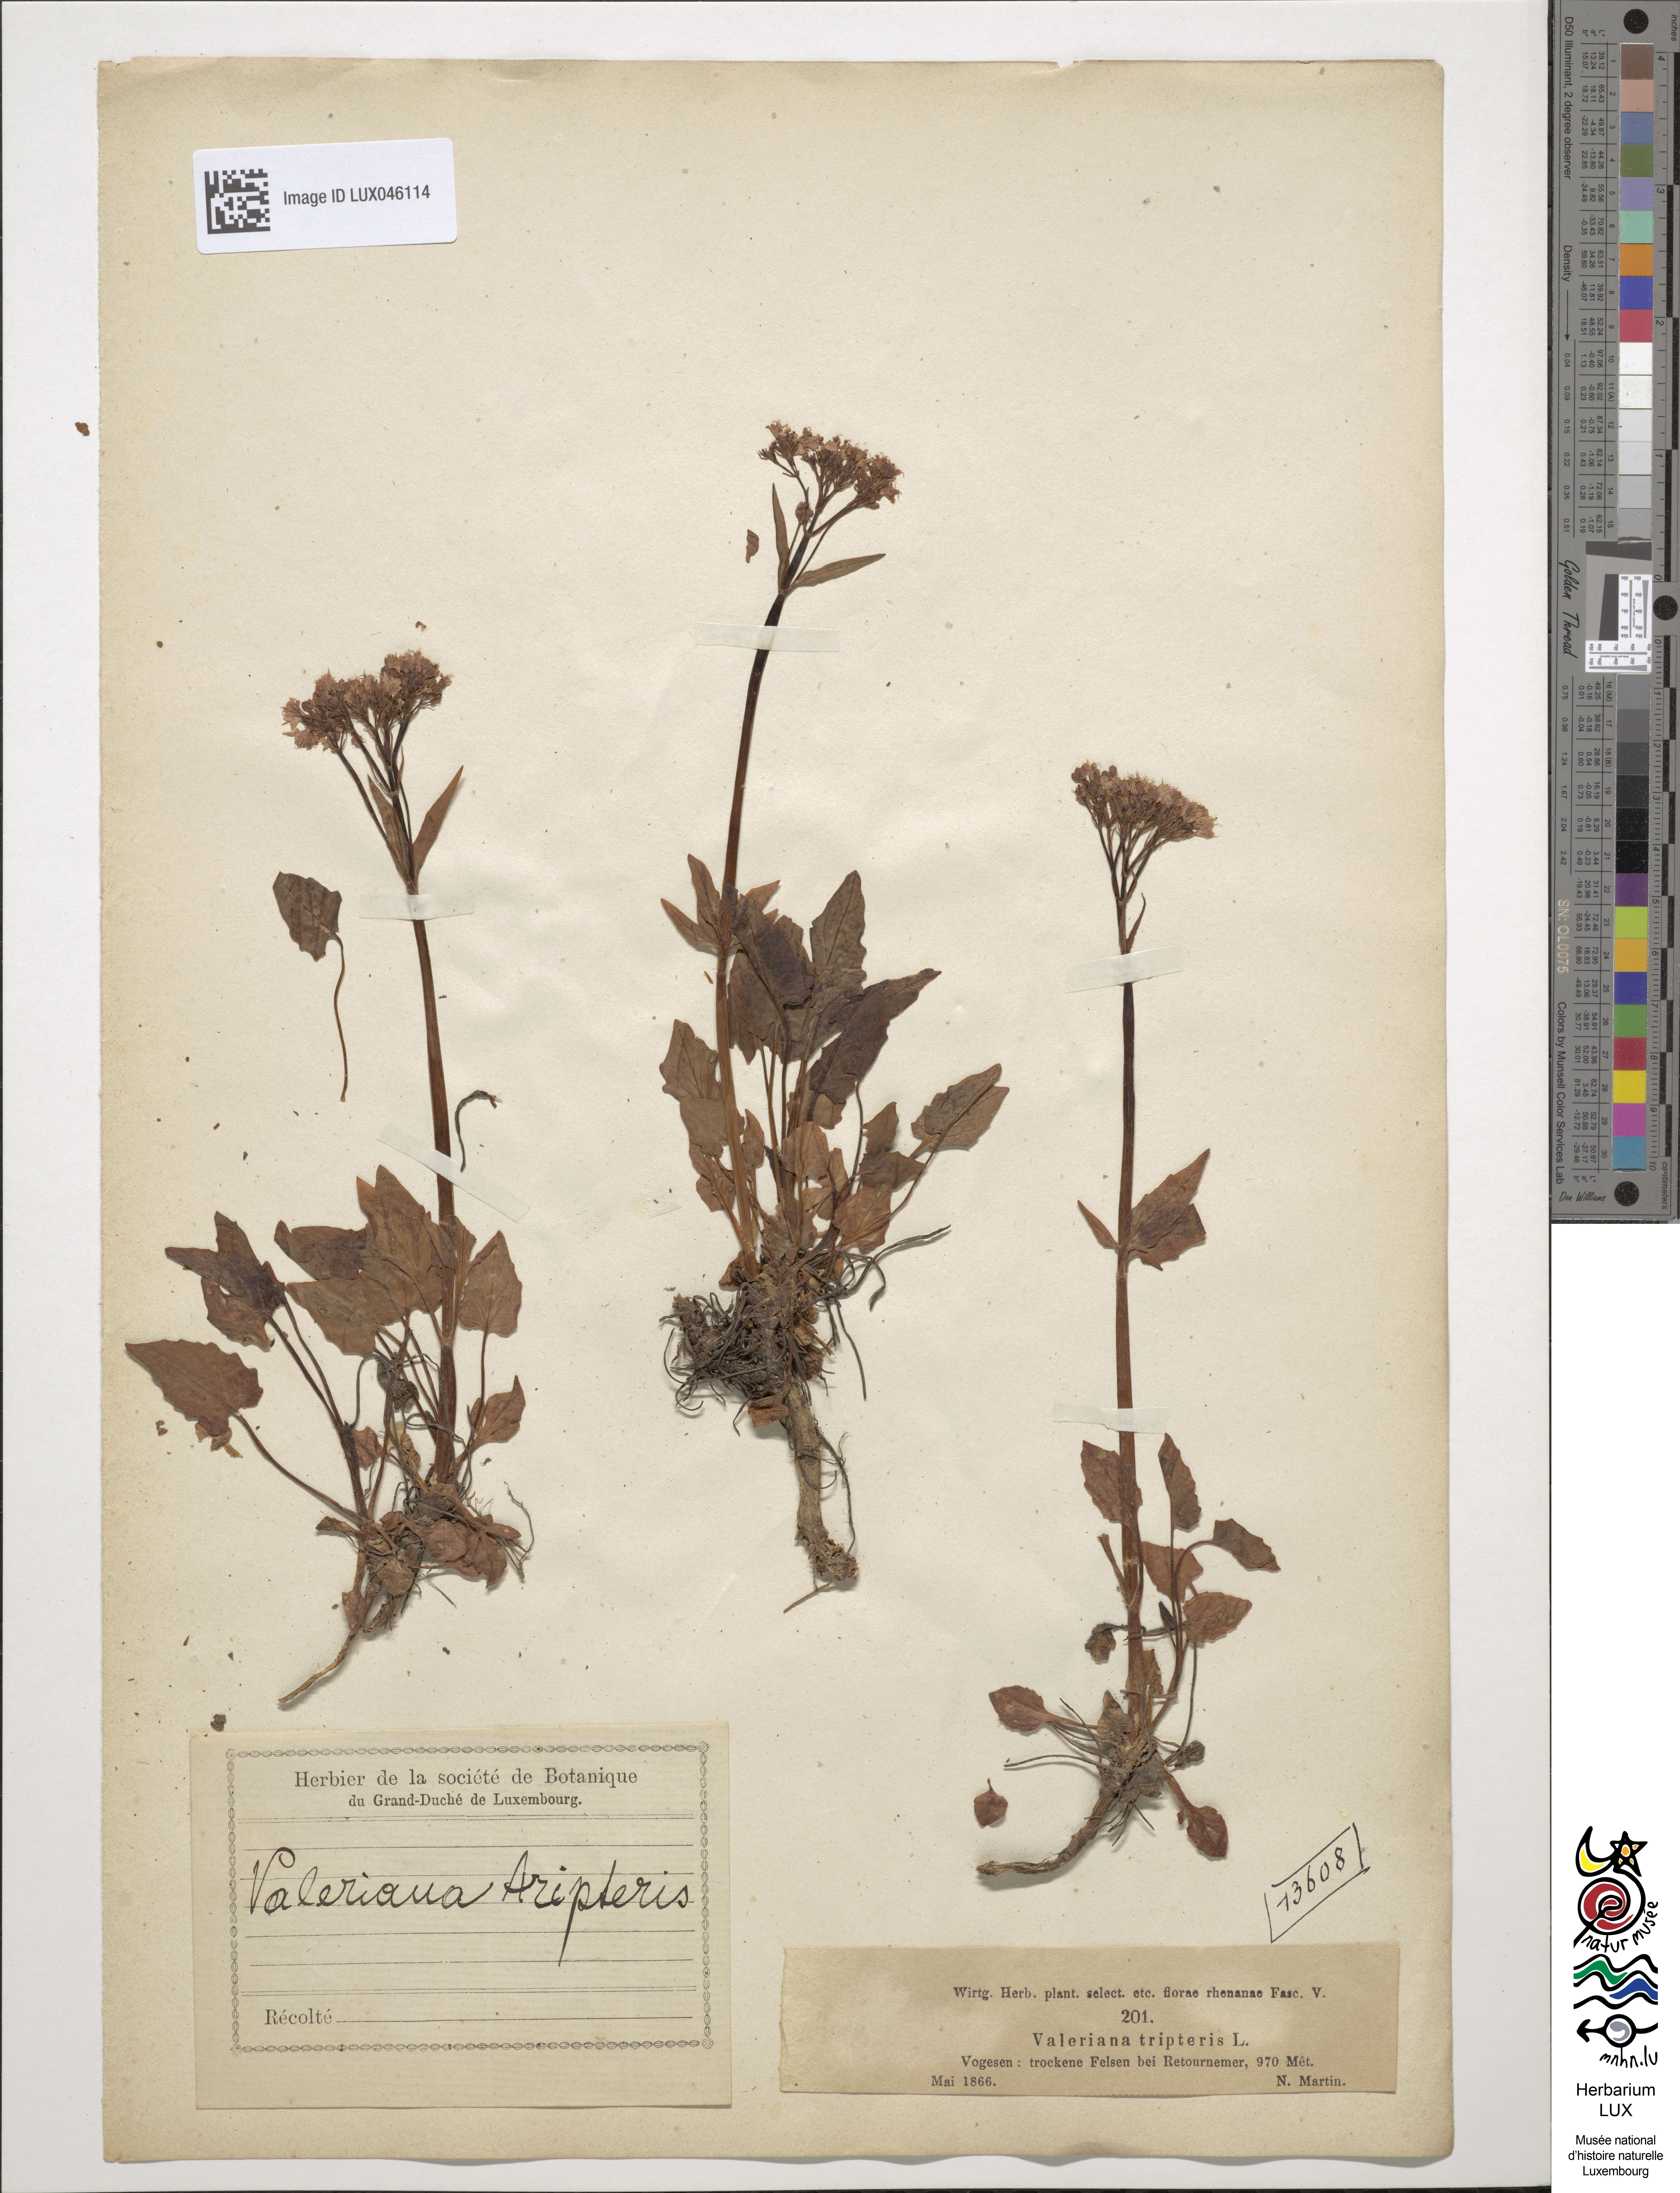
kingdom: Plantae
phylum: Tracheophyta
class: Magnoliopsida
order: Dipsacales
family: Caprifoliaceae
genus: Valeriana
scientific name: Valeriana tripteris
